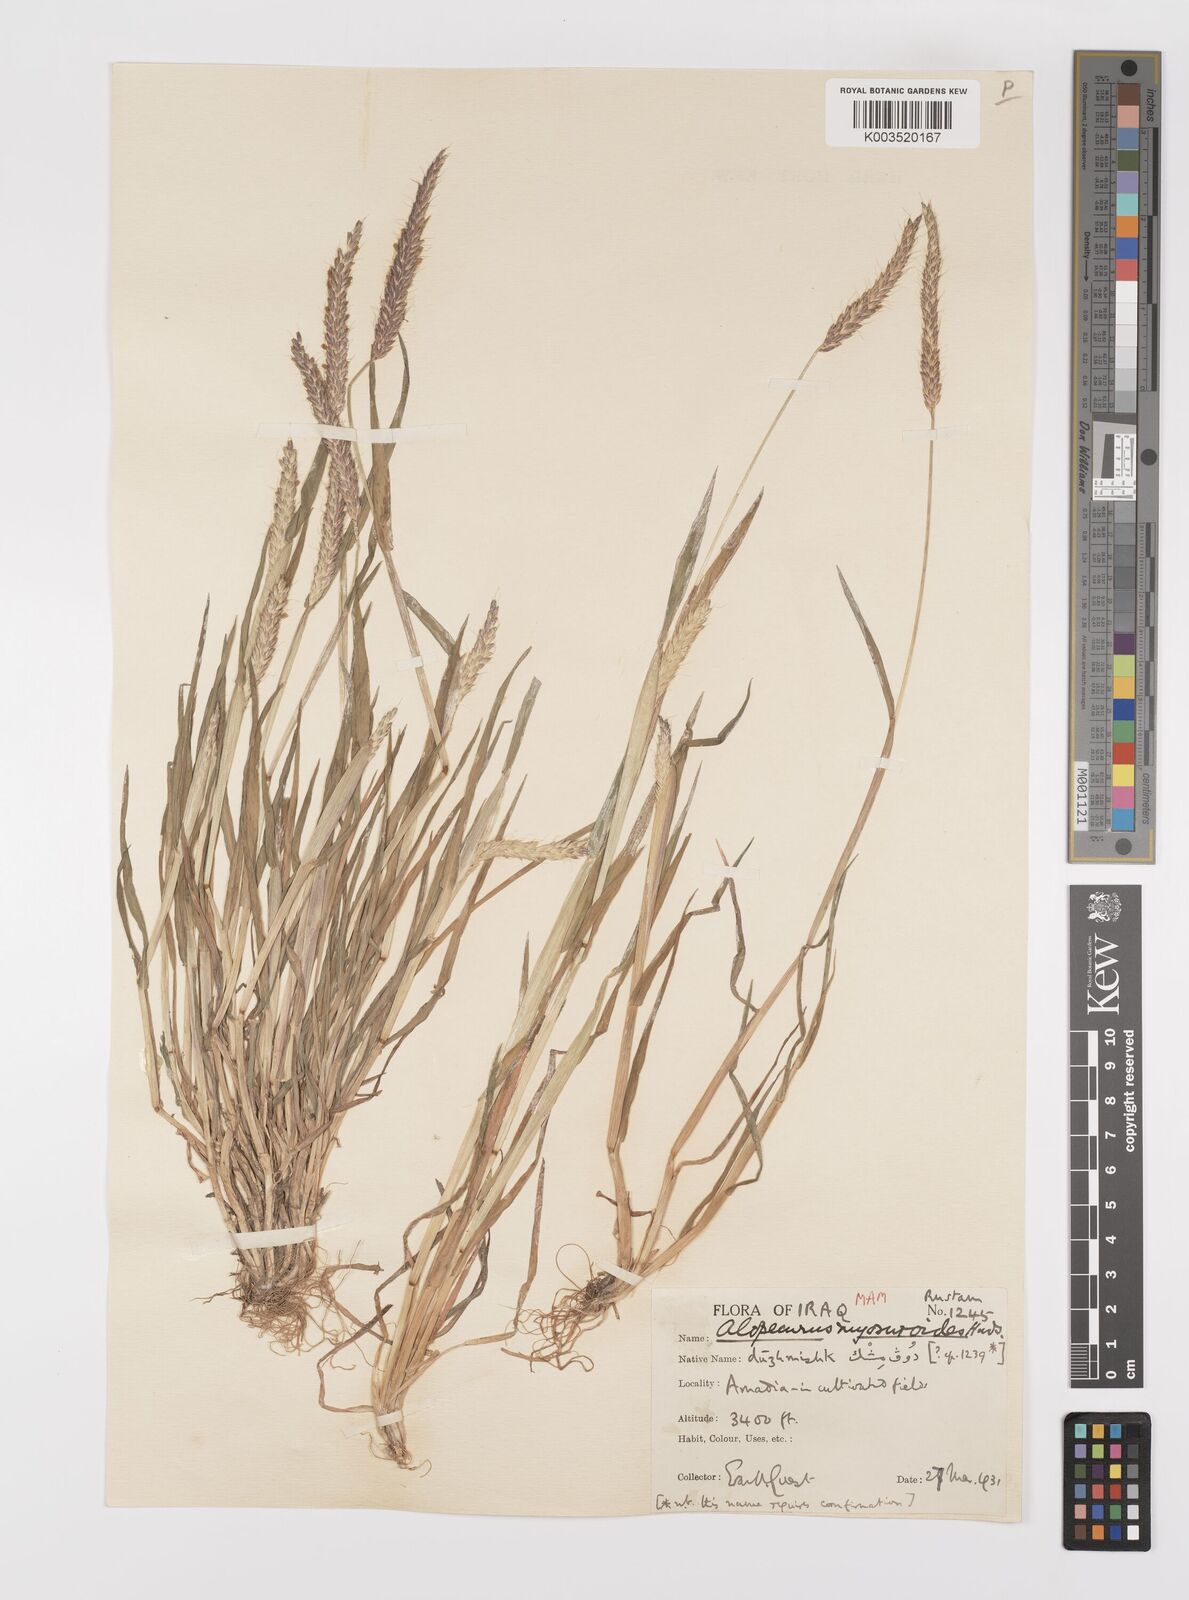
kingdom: Plantae
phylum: Tracheophyta
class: Liliopsida
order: Poales
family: Poaceae
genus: Alopecurus
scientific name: Alopecurus myosuroides
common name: Black-grass
